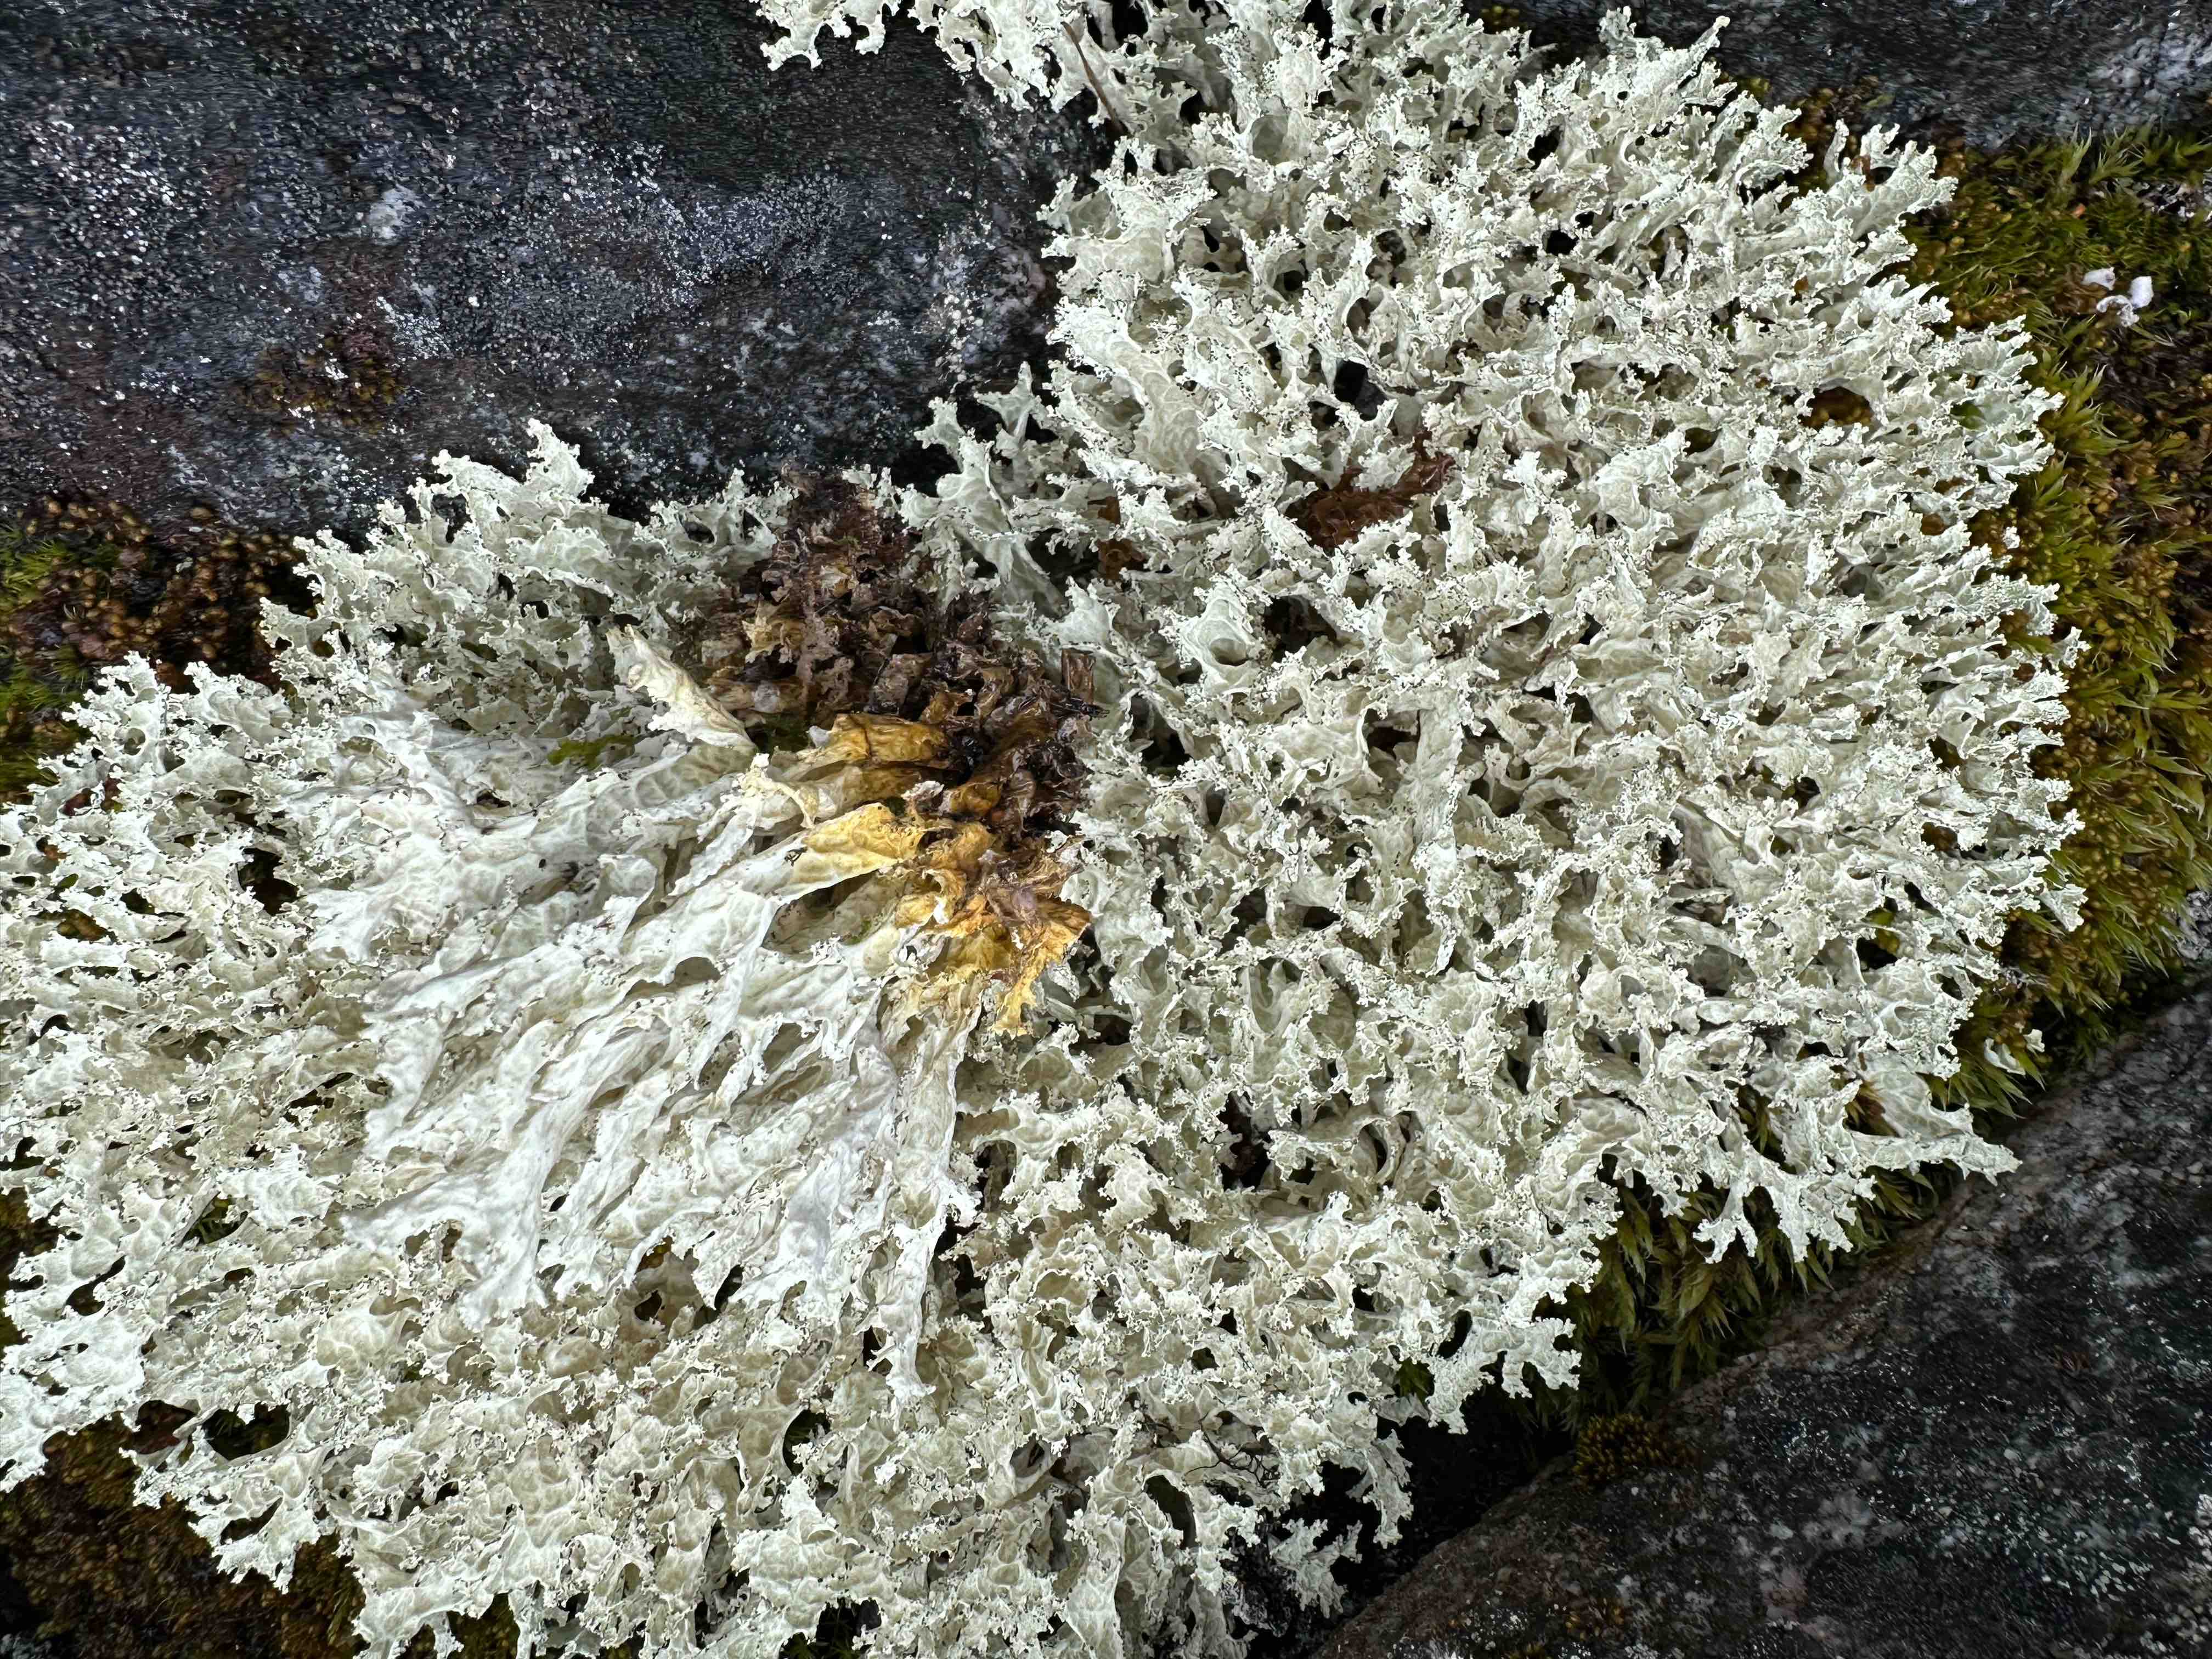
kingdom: Fungi
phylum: Ascomycota
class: Lecanoromycetes
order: Lecanorales
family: Parmeliaceae
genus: Nephromopsis
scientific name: Nephromopsis nivalis
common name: sne-kruslav
